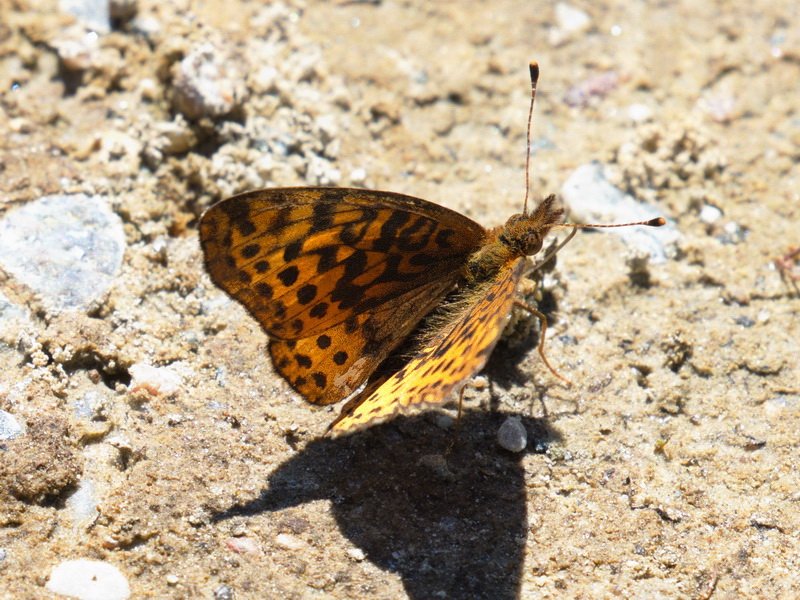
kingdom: Animalia
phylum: Arthropoda
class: Insecta
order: Lepidoptera
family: Nymphalidae
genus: Clossiana
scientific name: Clossiana toddi
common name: Meadow Fritillary
